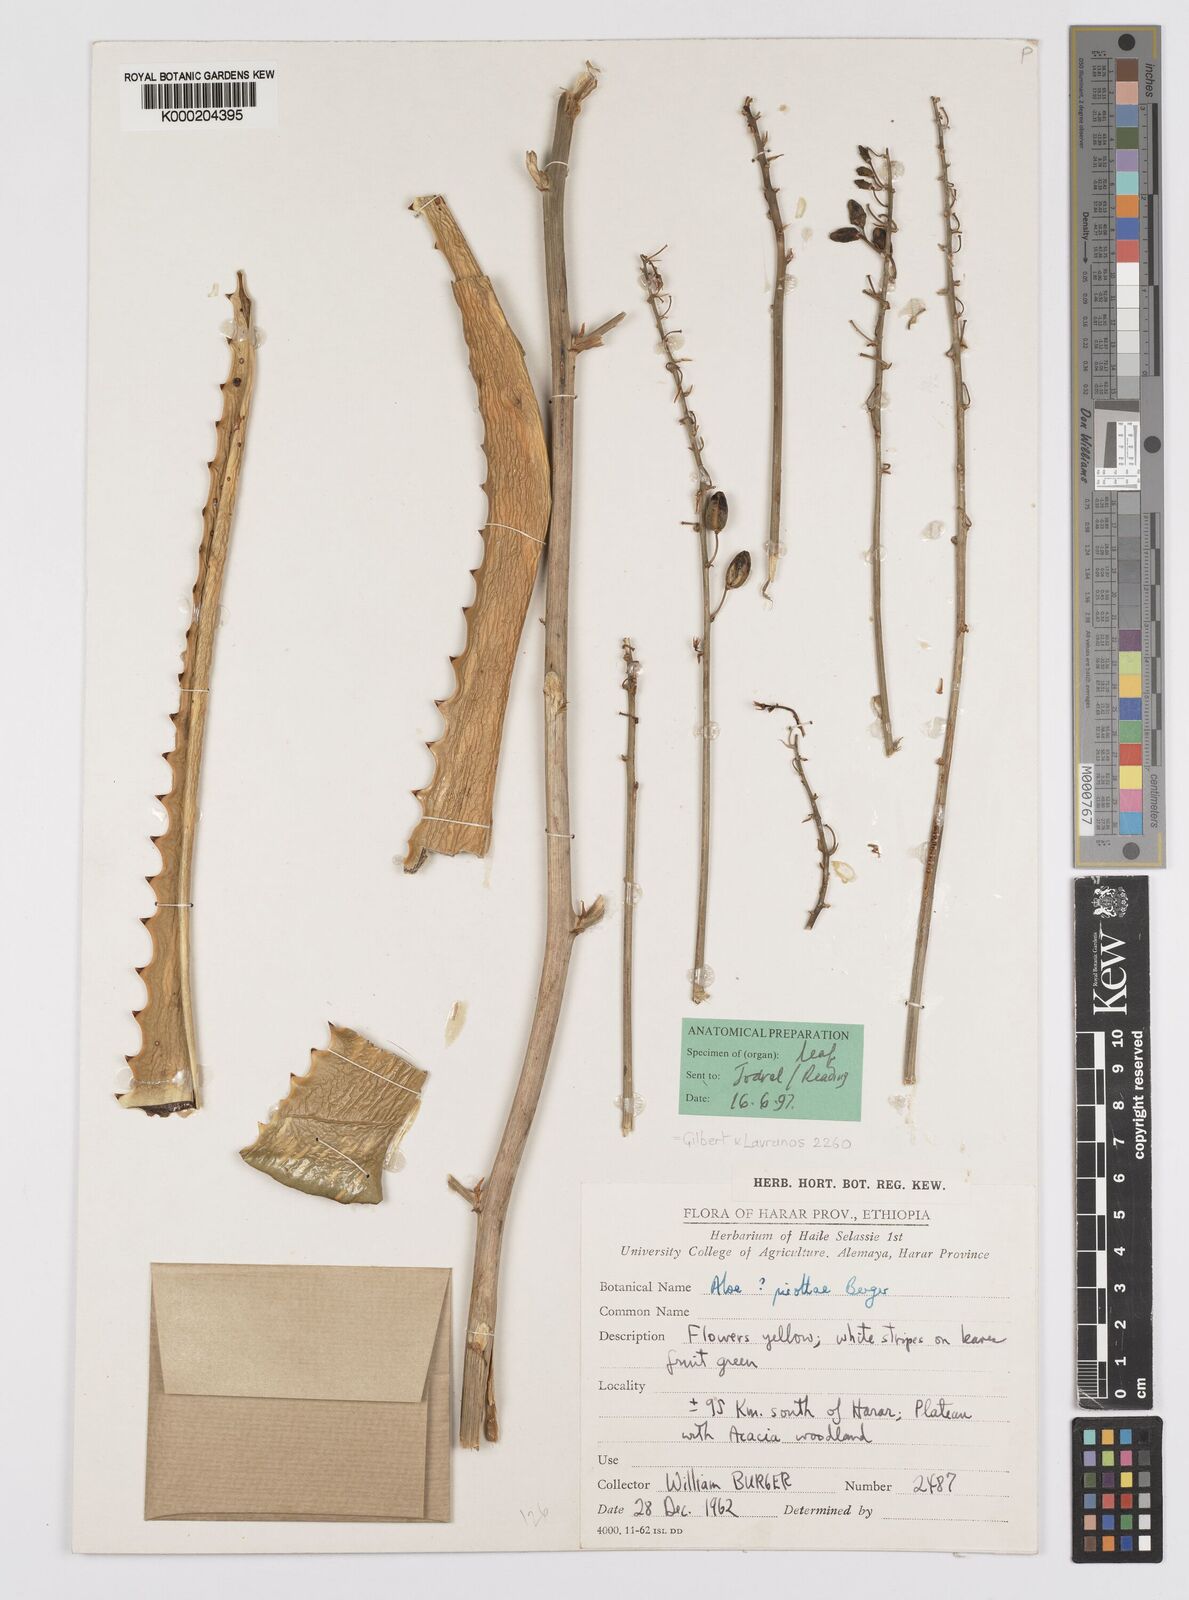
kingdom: Plantae
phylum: Tracheophyta
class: Liliopsida
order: Asparagales
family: Asphodelaceae
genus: Aloe
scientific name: Aloe pirottae
